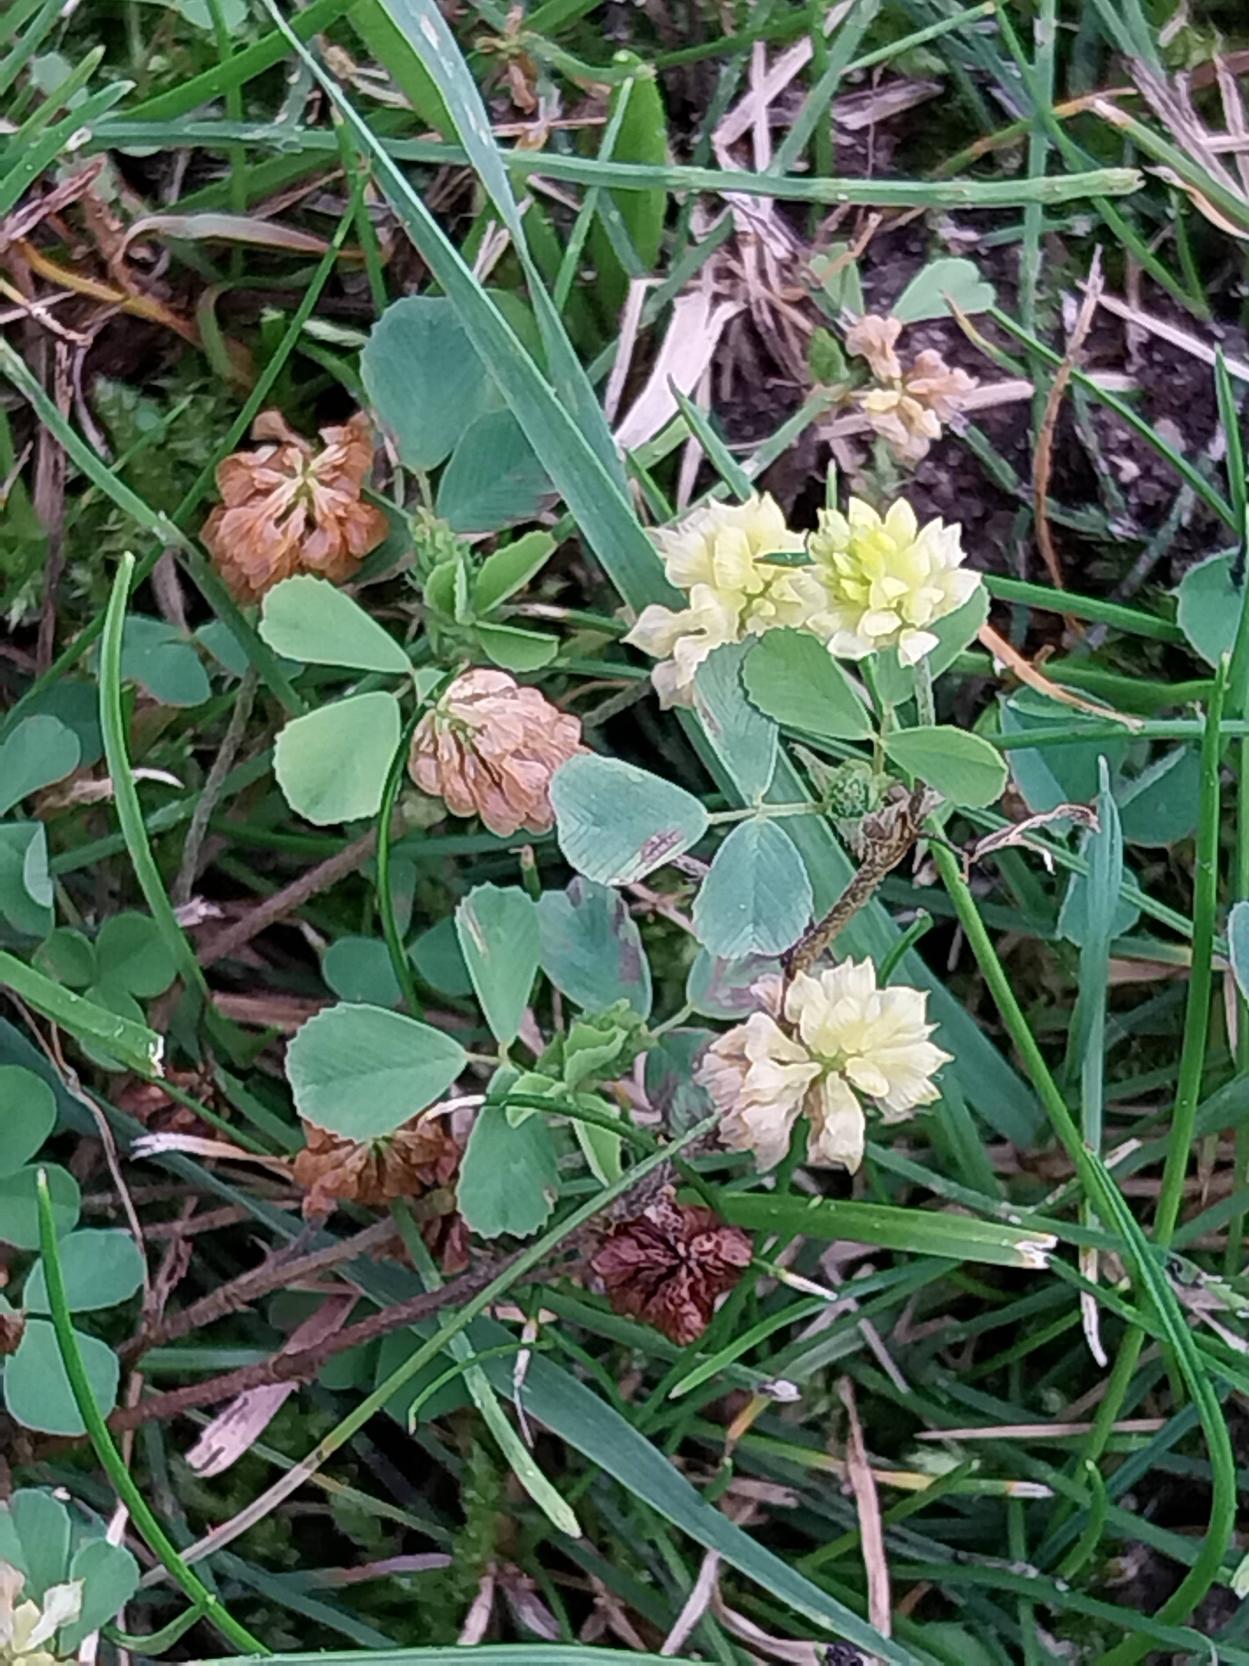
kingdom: Plantae
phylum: Tracheophyta
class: Magnoliopsida
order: Fabales
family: Fabaceae
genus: Trifolium
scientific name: Trifolium campestre
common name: Gul kløver
